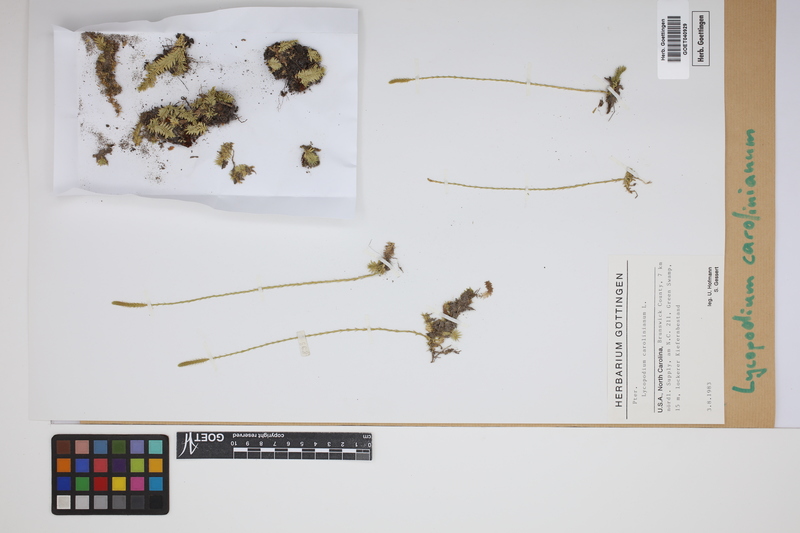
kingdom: Plantae
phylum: Tracheophyta
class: Lycopodiopsida
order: Lycopodiales
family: Lycopodiaceae
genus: Brownseya
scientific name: Brownseya serpentina
